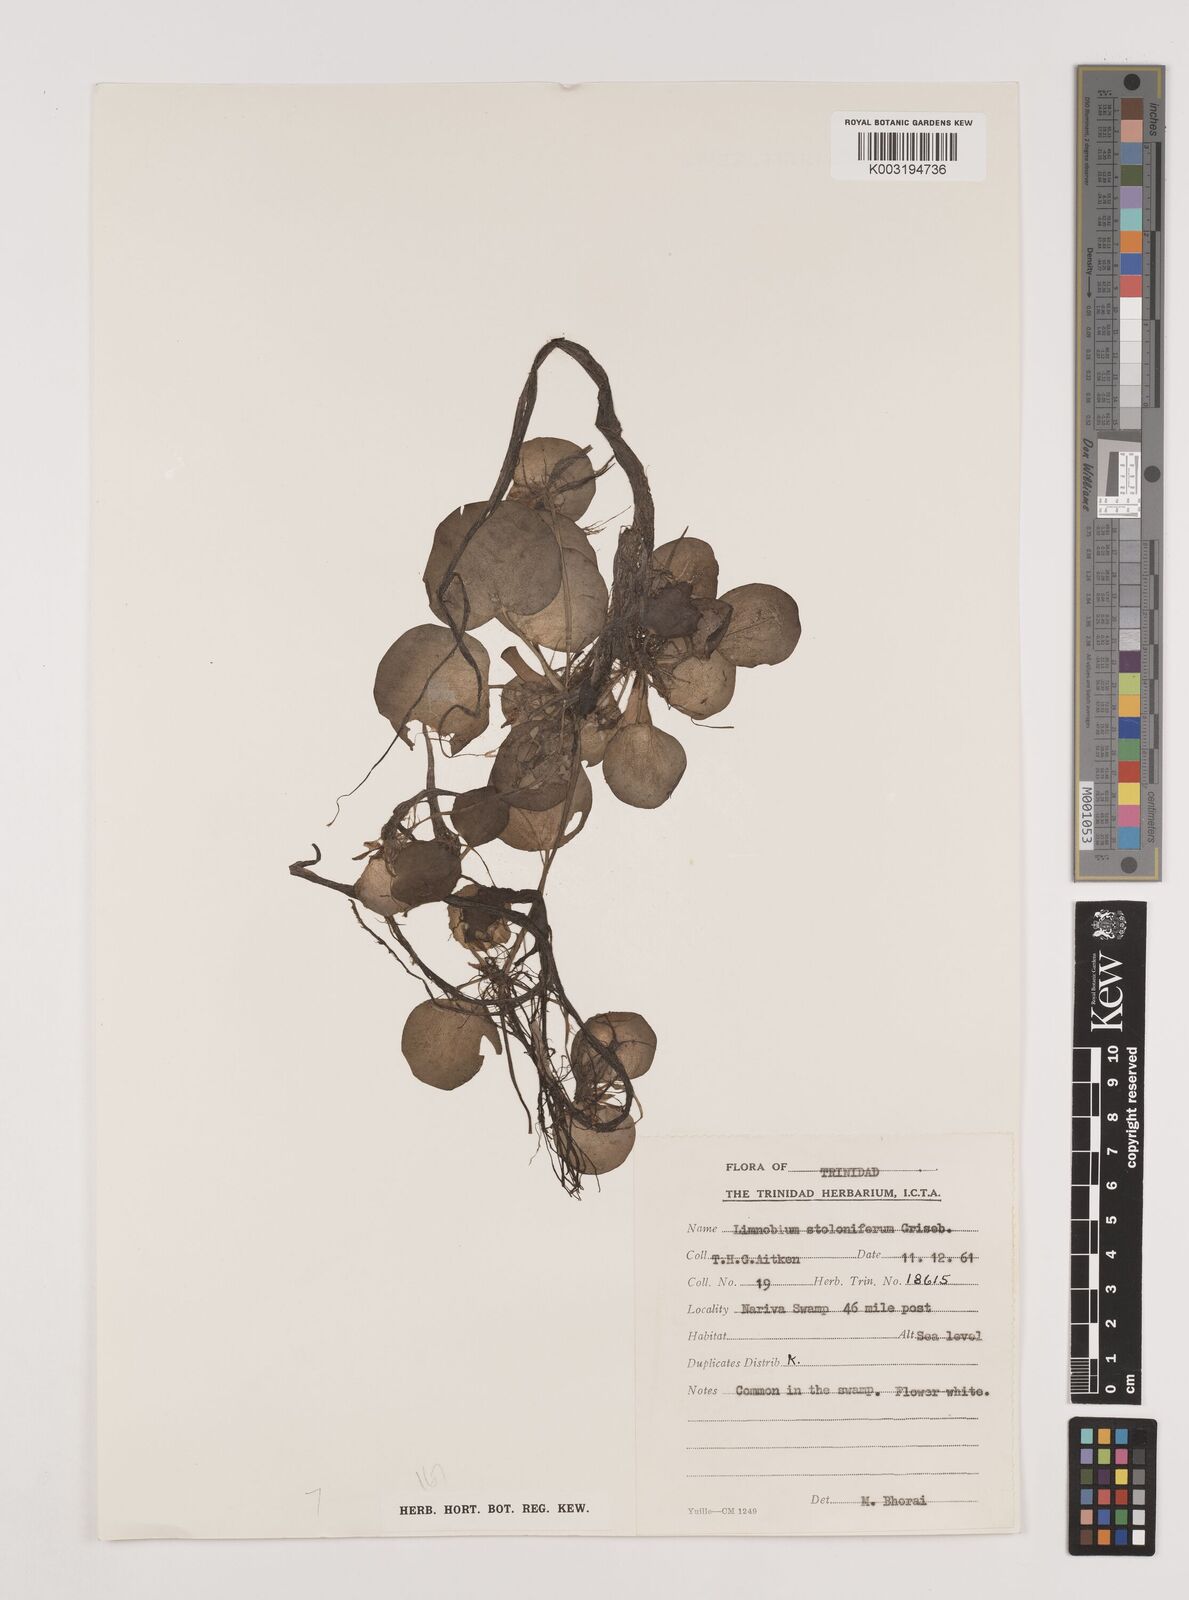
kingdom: Plantae
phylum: Tracheophyta
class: Liliopsida
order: Alismatales
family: Hydrocharitaceae
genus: Hydrocharis
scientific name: Hydrocharis laevigata
